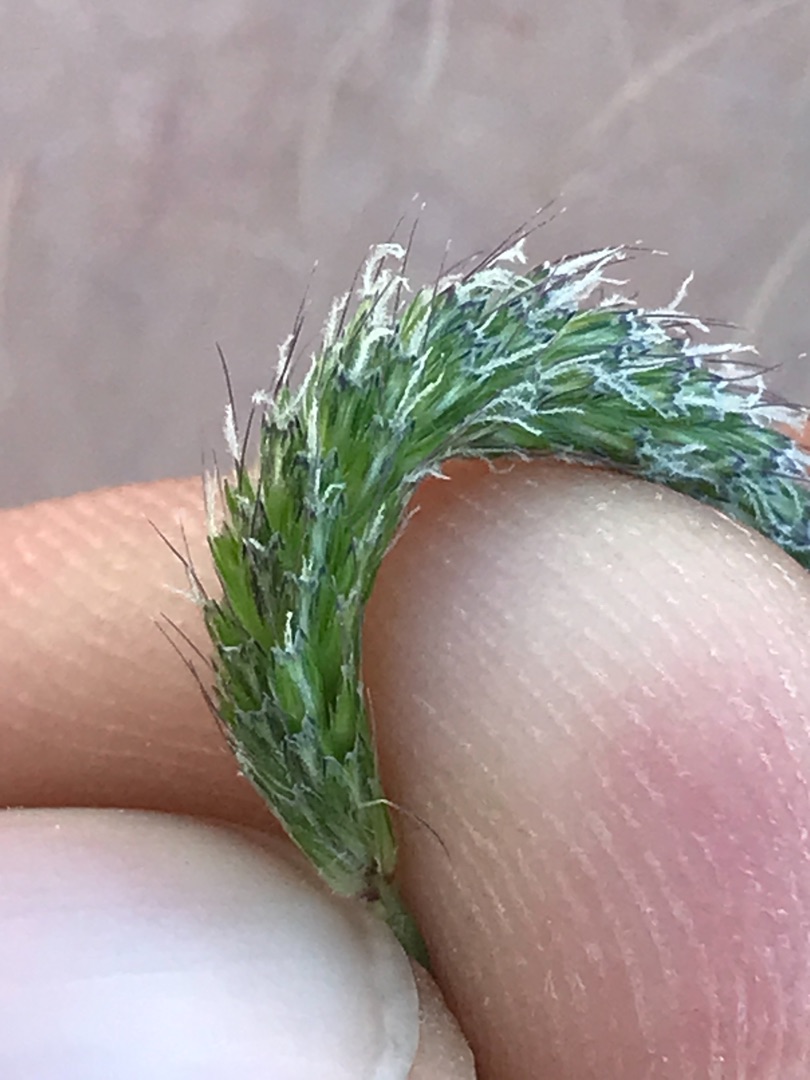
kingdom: Plantae
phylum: Tracheophyta
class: Liliopsida
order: Poales
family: Poaceae
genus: Alopecurus
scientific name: Alopecurus geniculatus
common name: Knæbøjet rævehale
